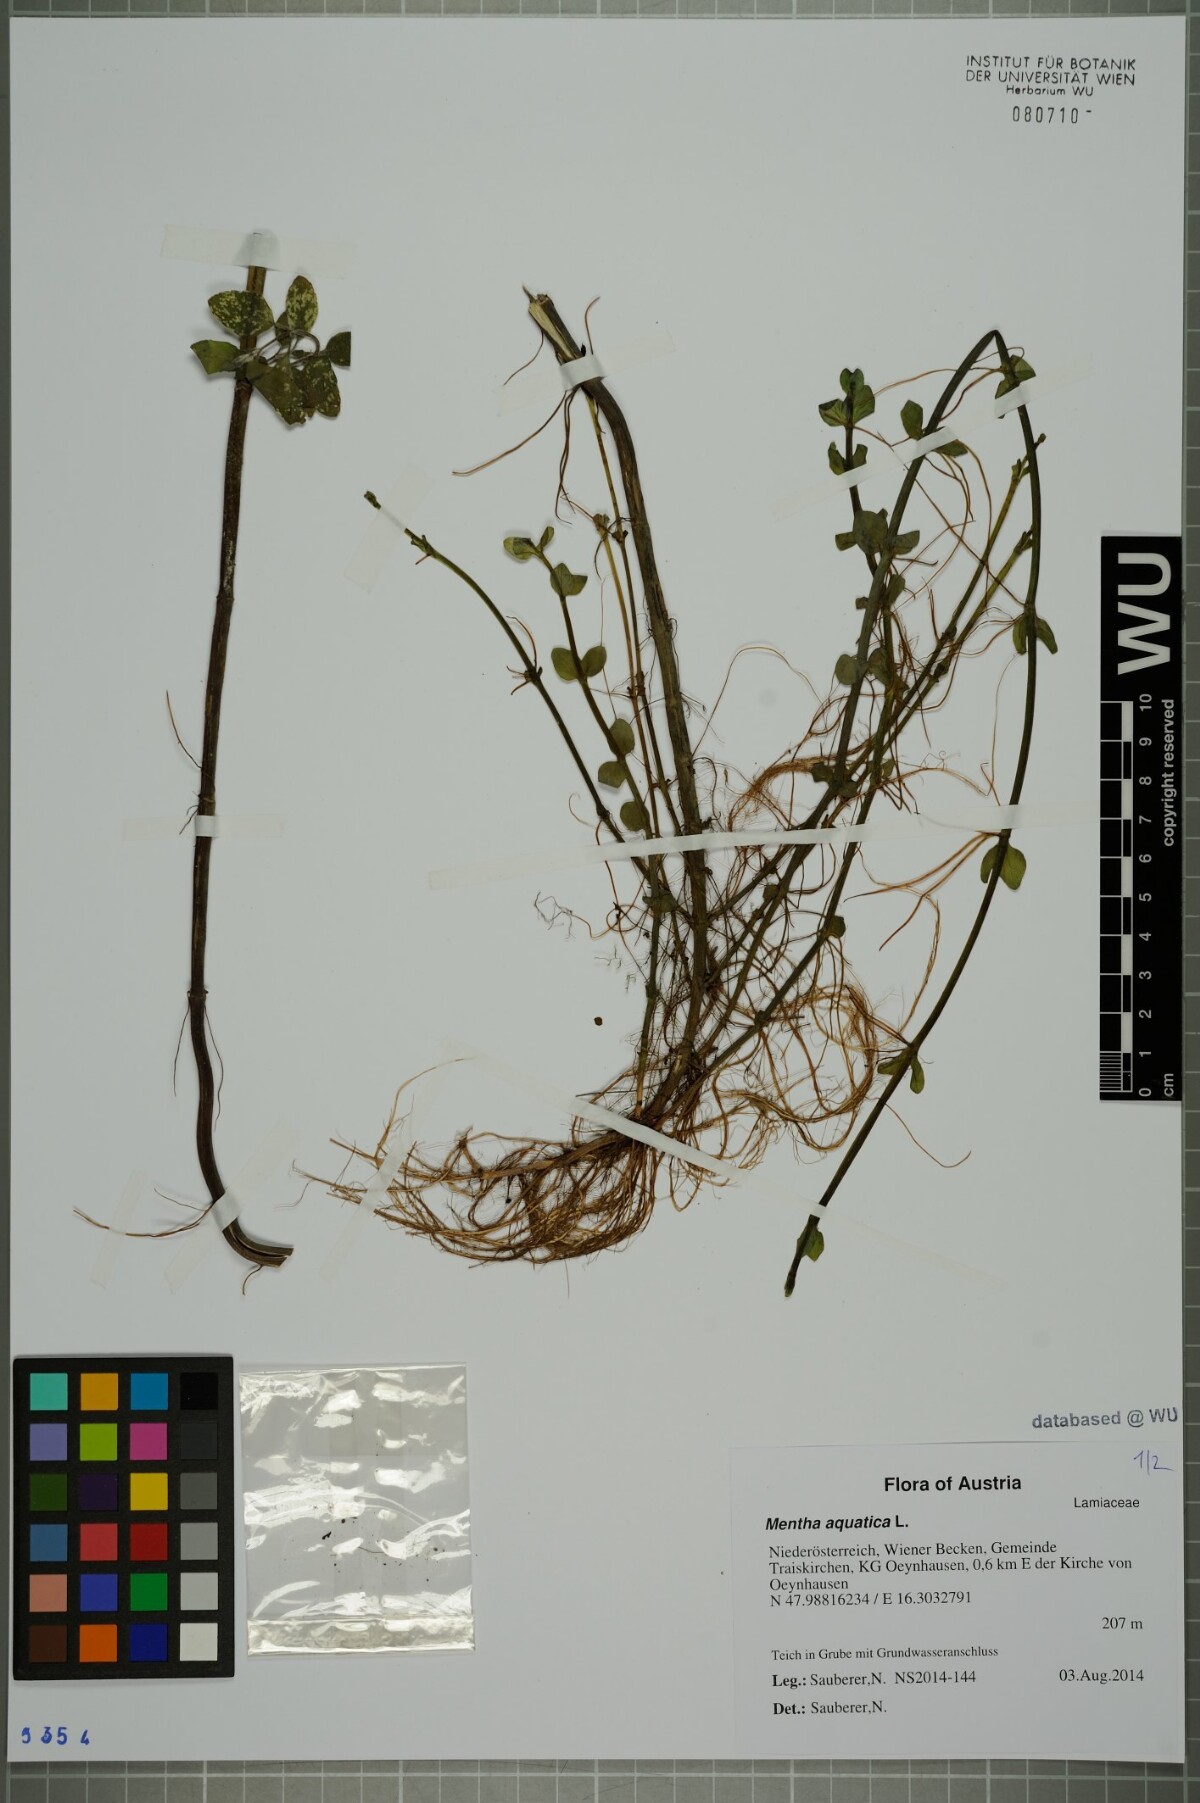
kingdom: Plantae
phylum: Tracheophyta
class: Magnoliopsida
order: Lamiales
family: Lamiaceae
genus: Mentha
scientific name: Mentha aquatica
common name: Water mint
